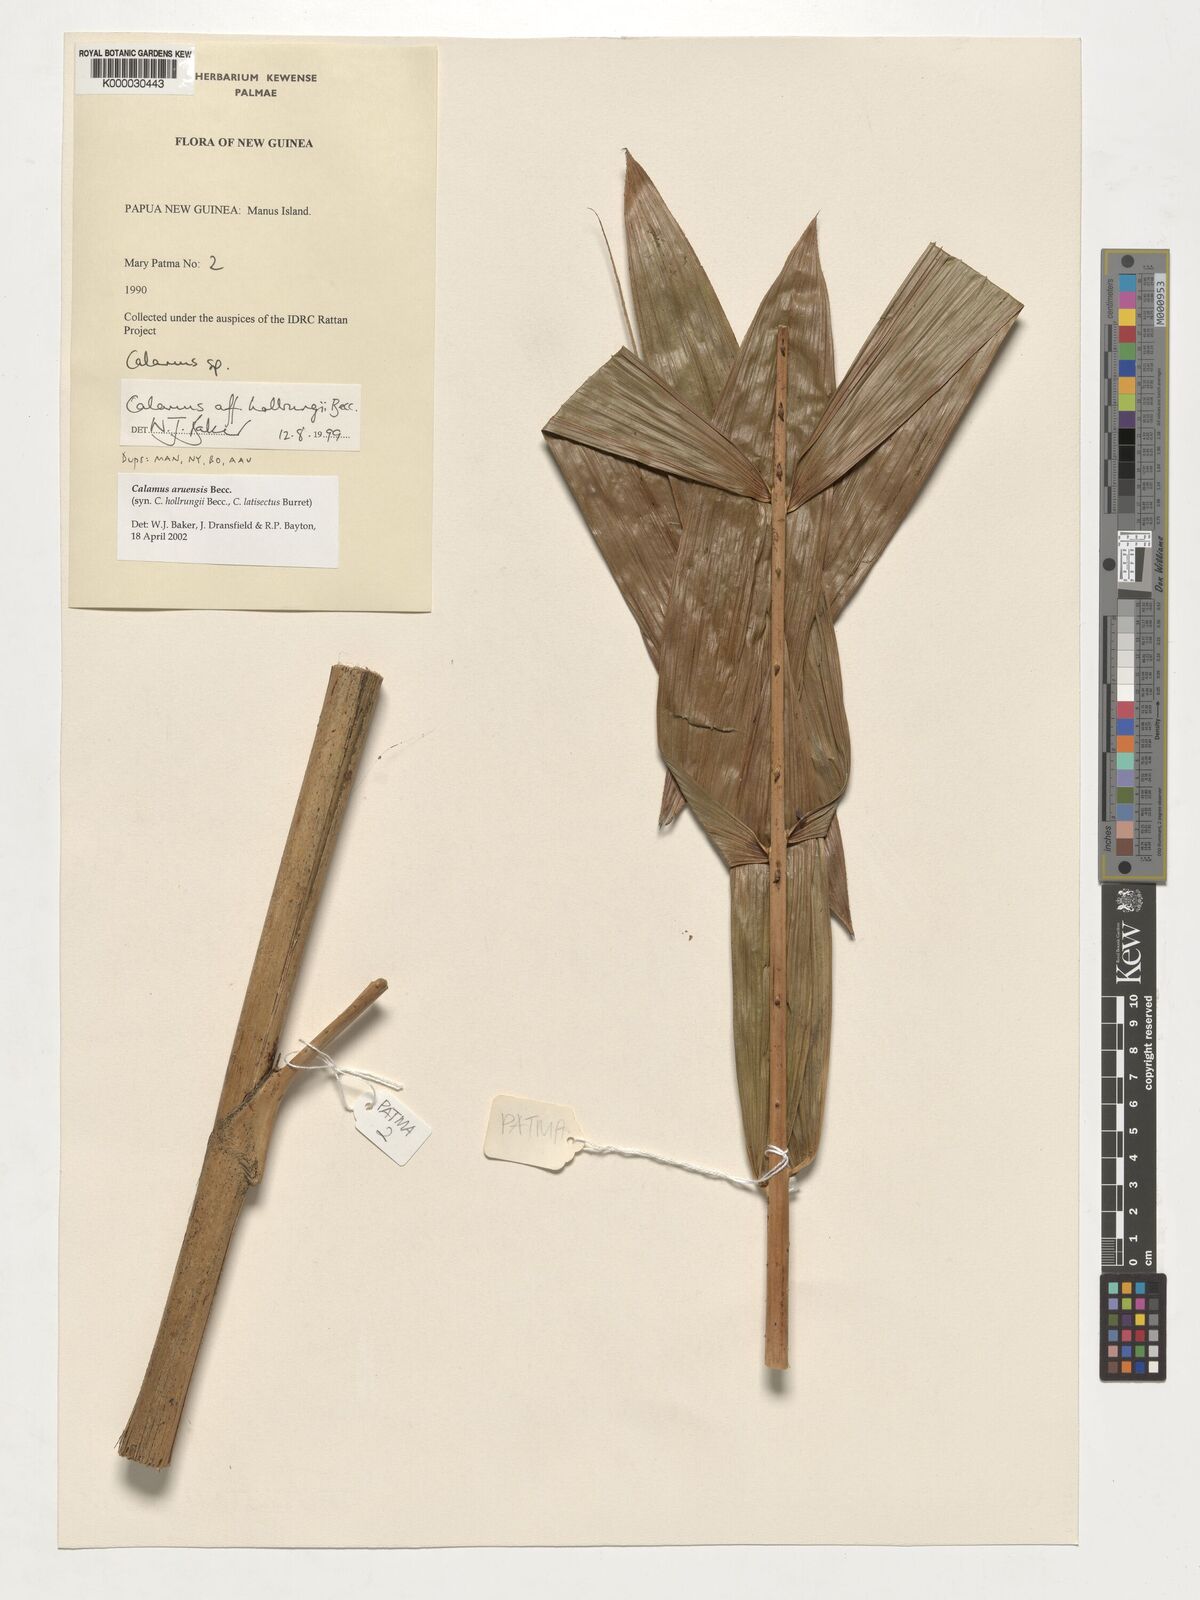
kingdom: Plantae
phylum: Tracheophyta
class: Liliopsida
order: Arecales
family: Arecaceae
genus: Calamus
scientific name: Calamus aruensis
